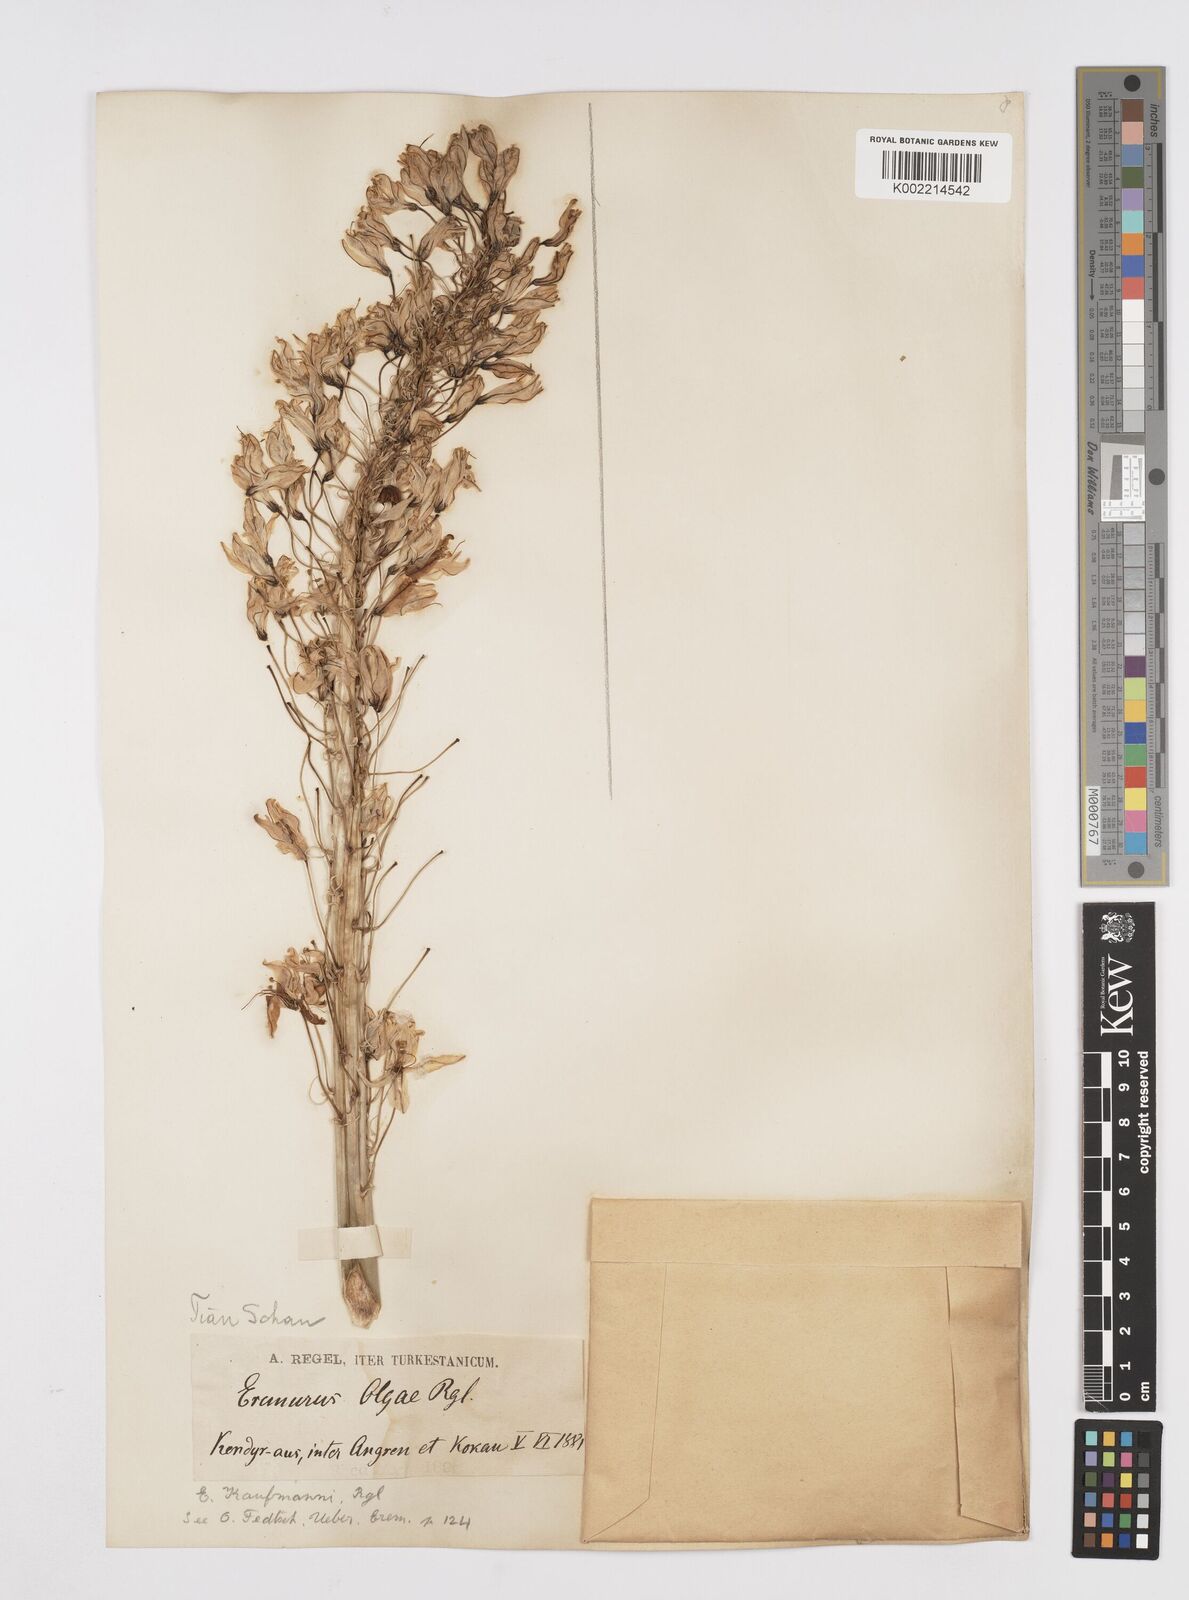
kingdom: Plantae
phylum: Tracheophyta
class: Liliopsida
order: Asparagales
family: Asphodelaceae
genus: Eremurus
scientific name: Eremurus kaufmannii
